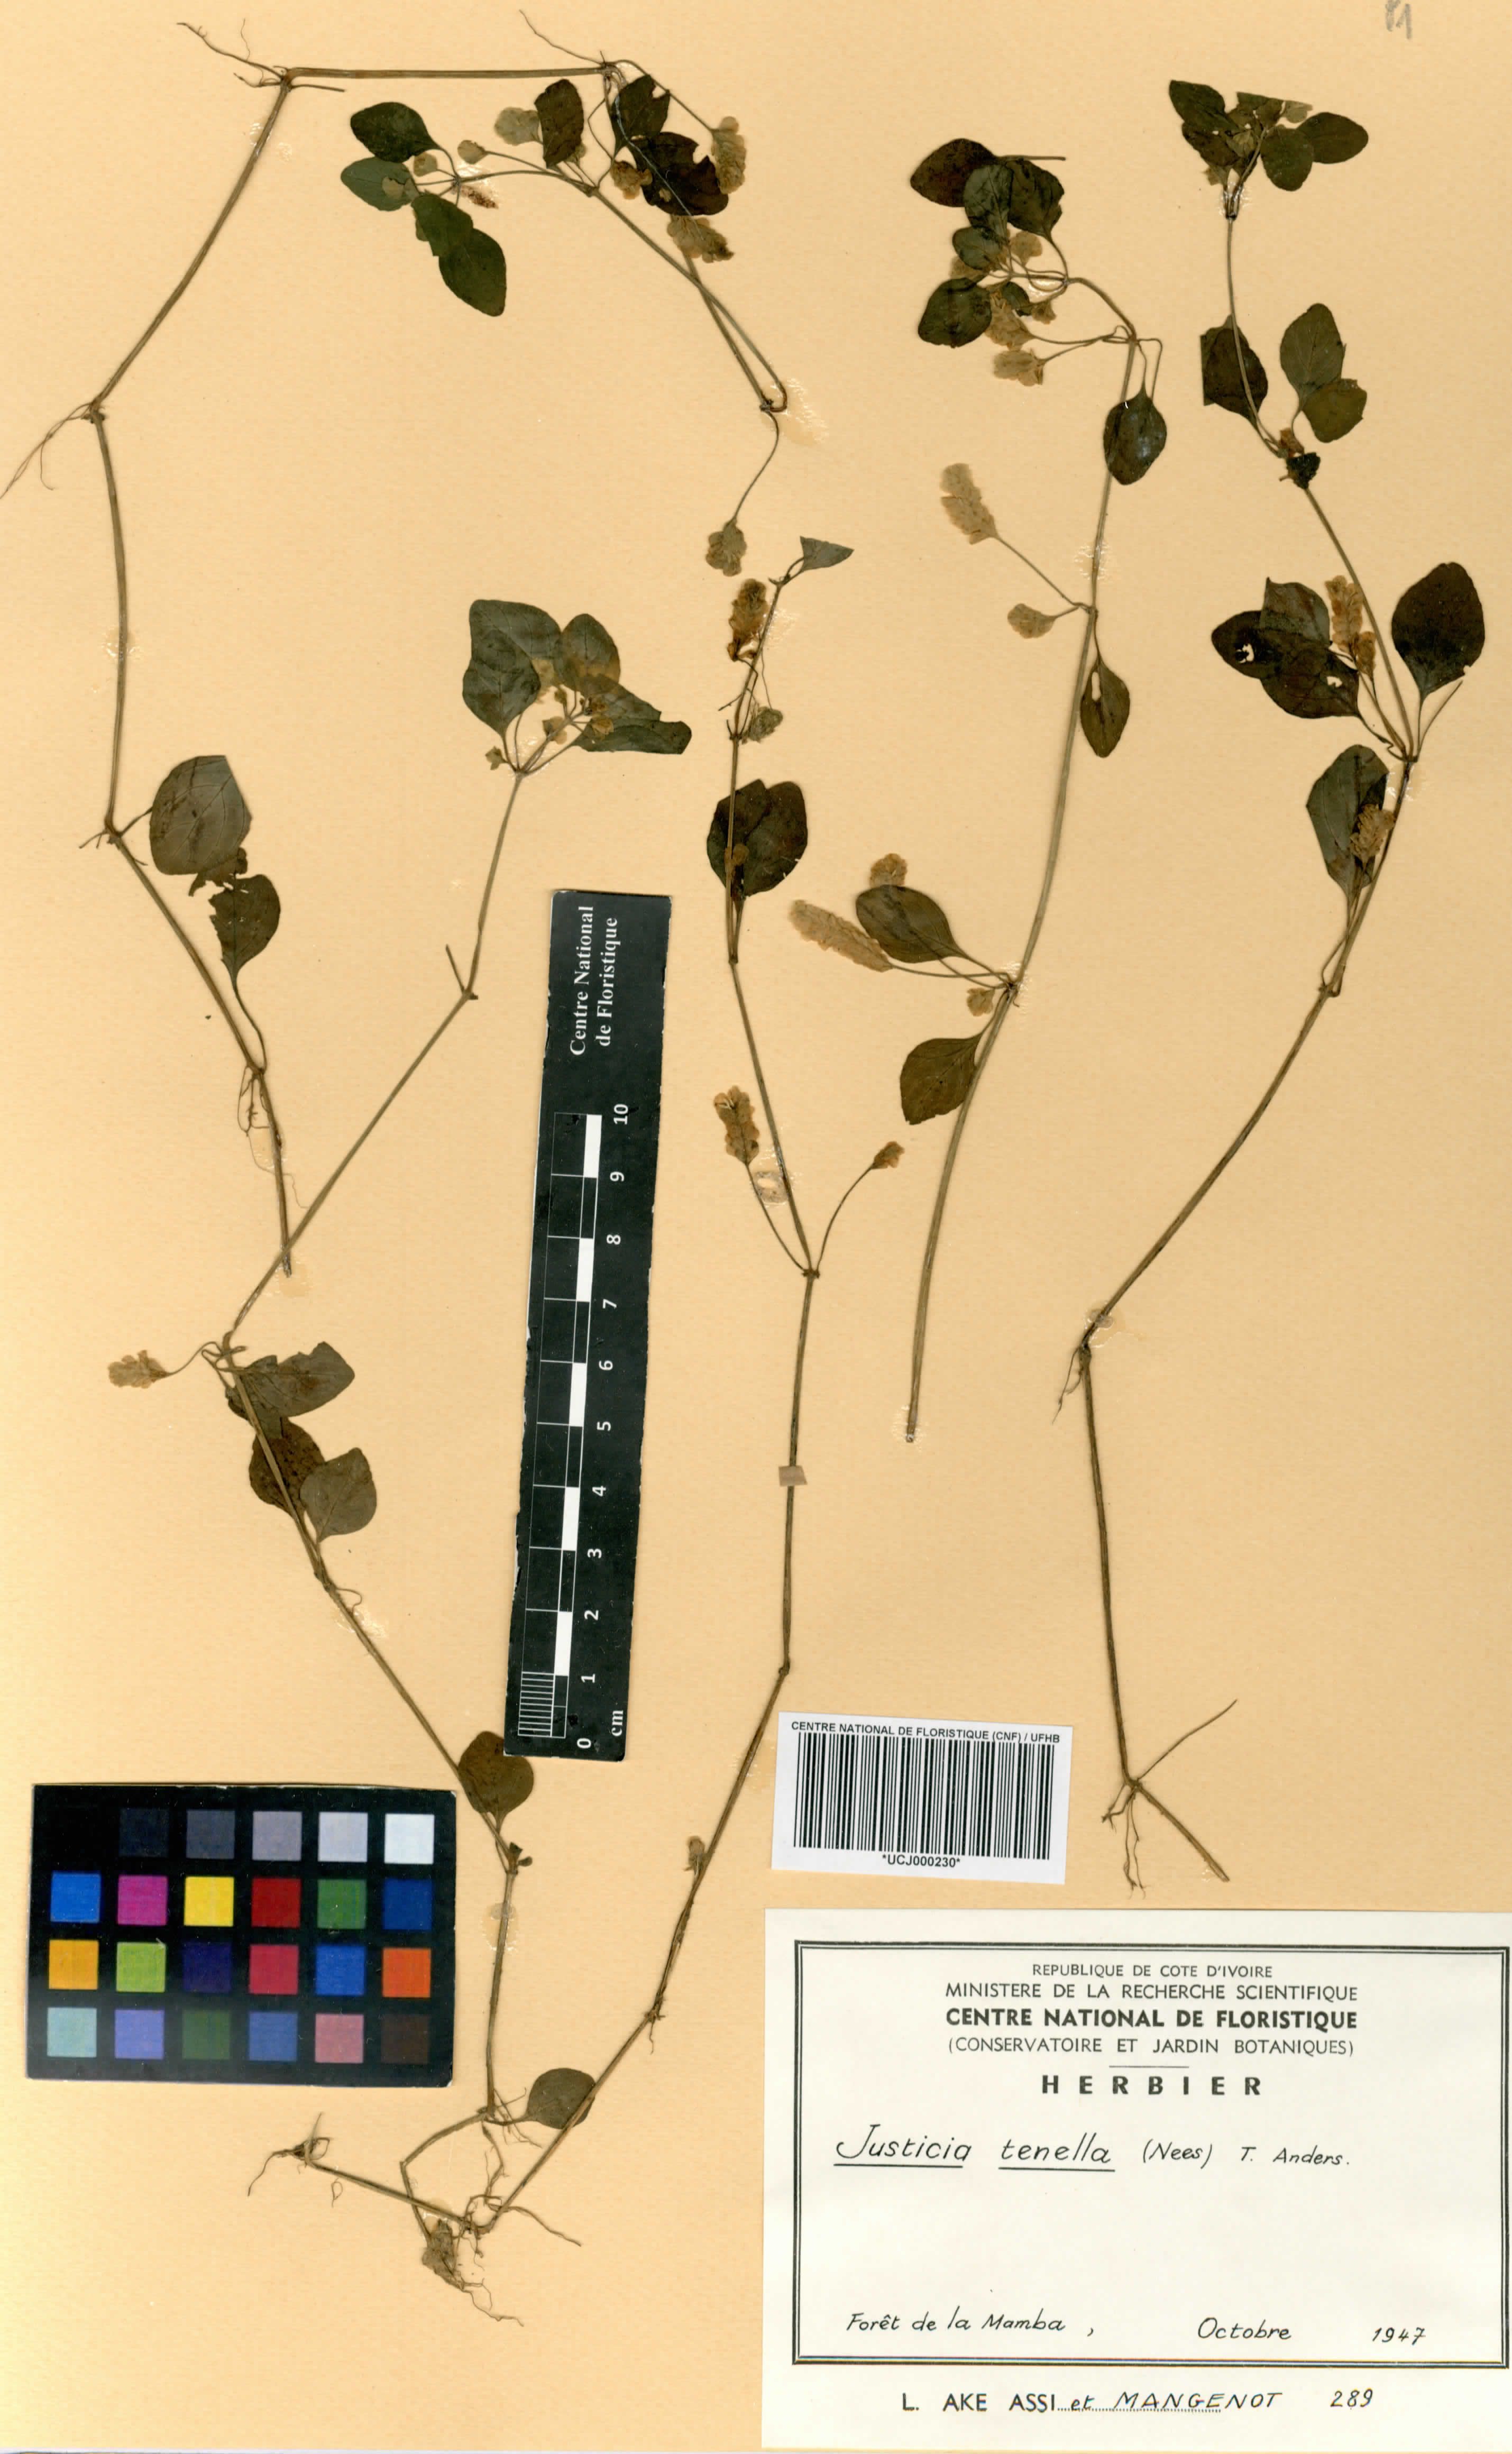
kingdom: Plantae
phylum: Tracheophyta
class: Magnoliopsida
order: Lamiales
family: Acanthaceae
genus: Anisostachya
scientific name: Anisostachya tenella
